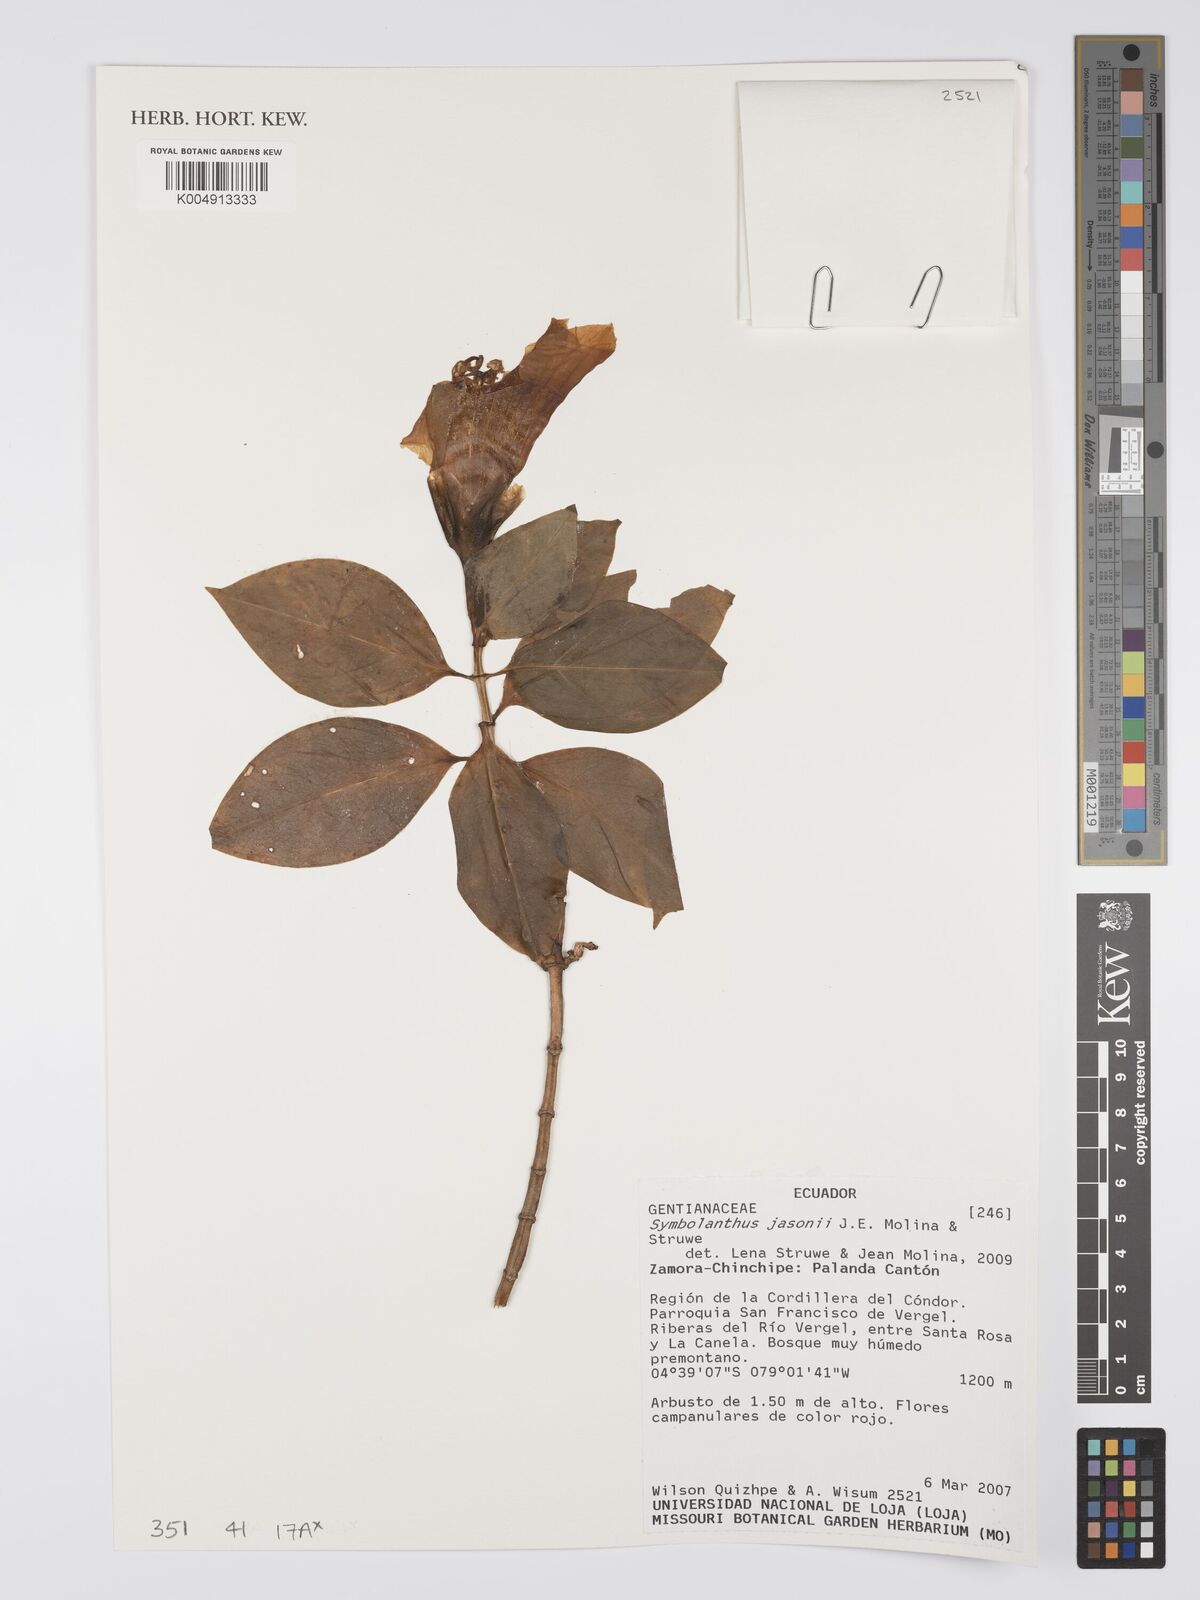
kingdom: Plantae
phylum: Tracheophyta
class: Magnoliopsida
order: Gentianales
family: Gentianaceae
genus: Symbolanthus
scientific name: Symbolanthus jasonii
